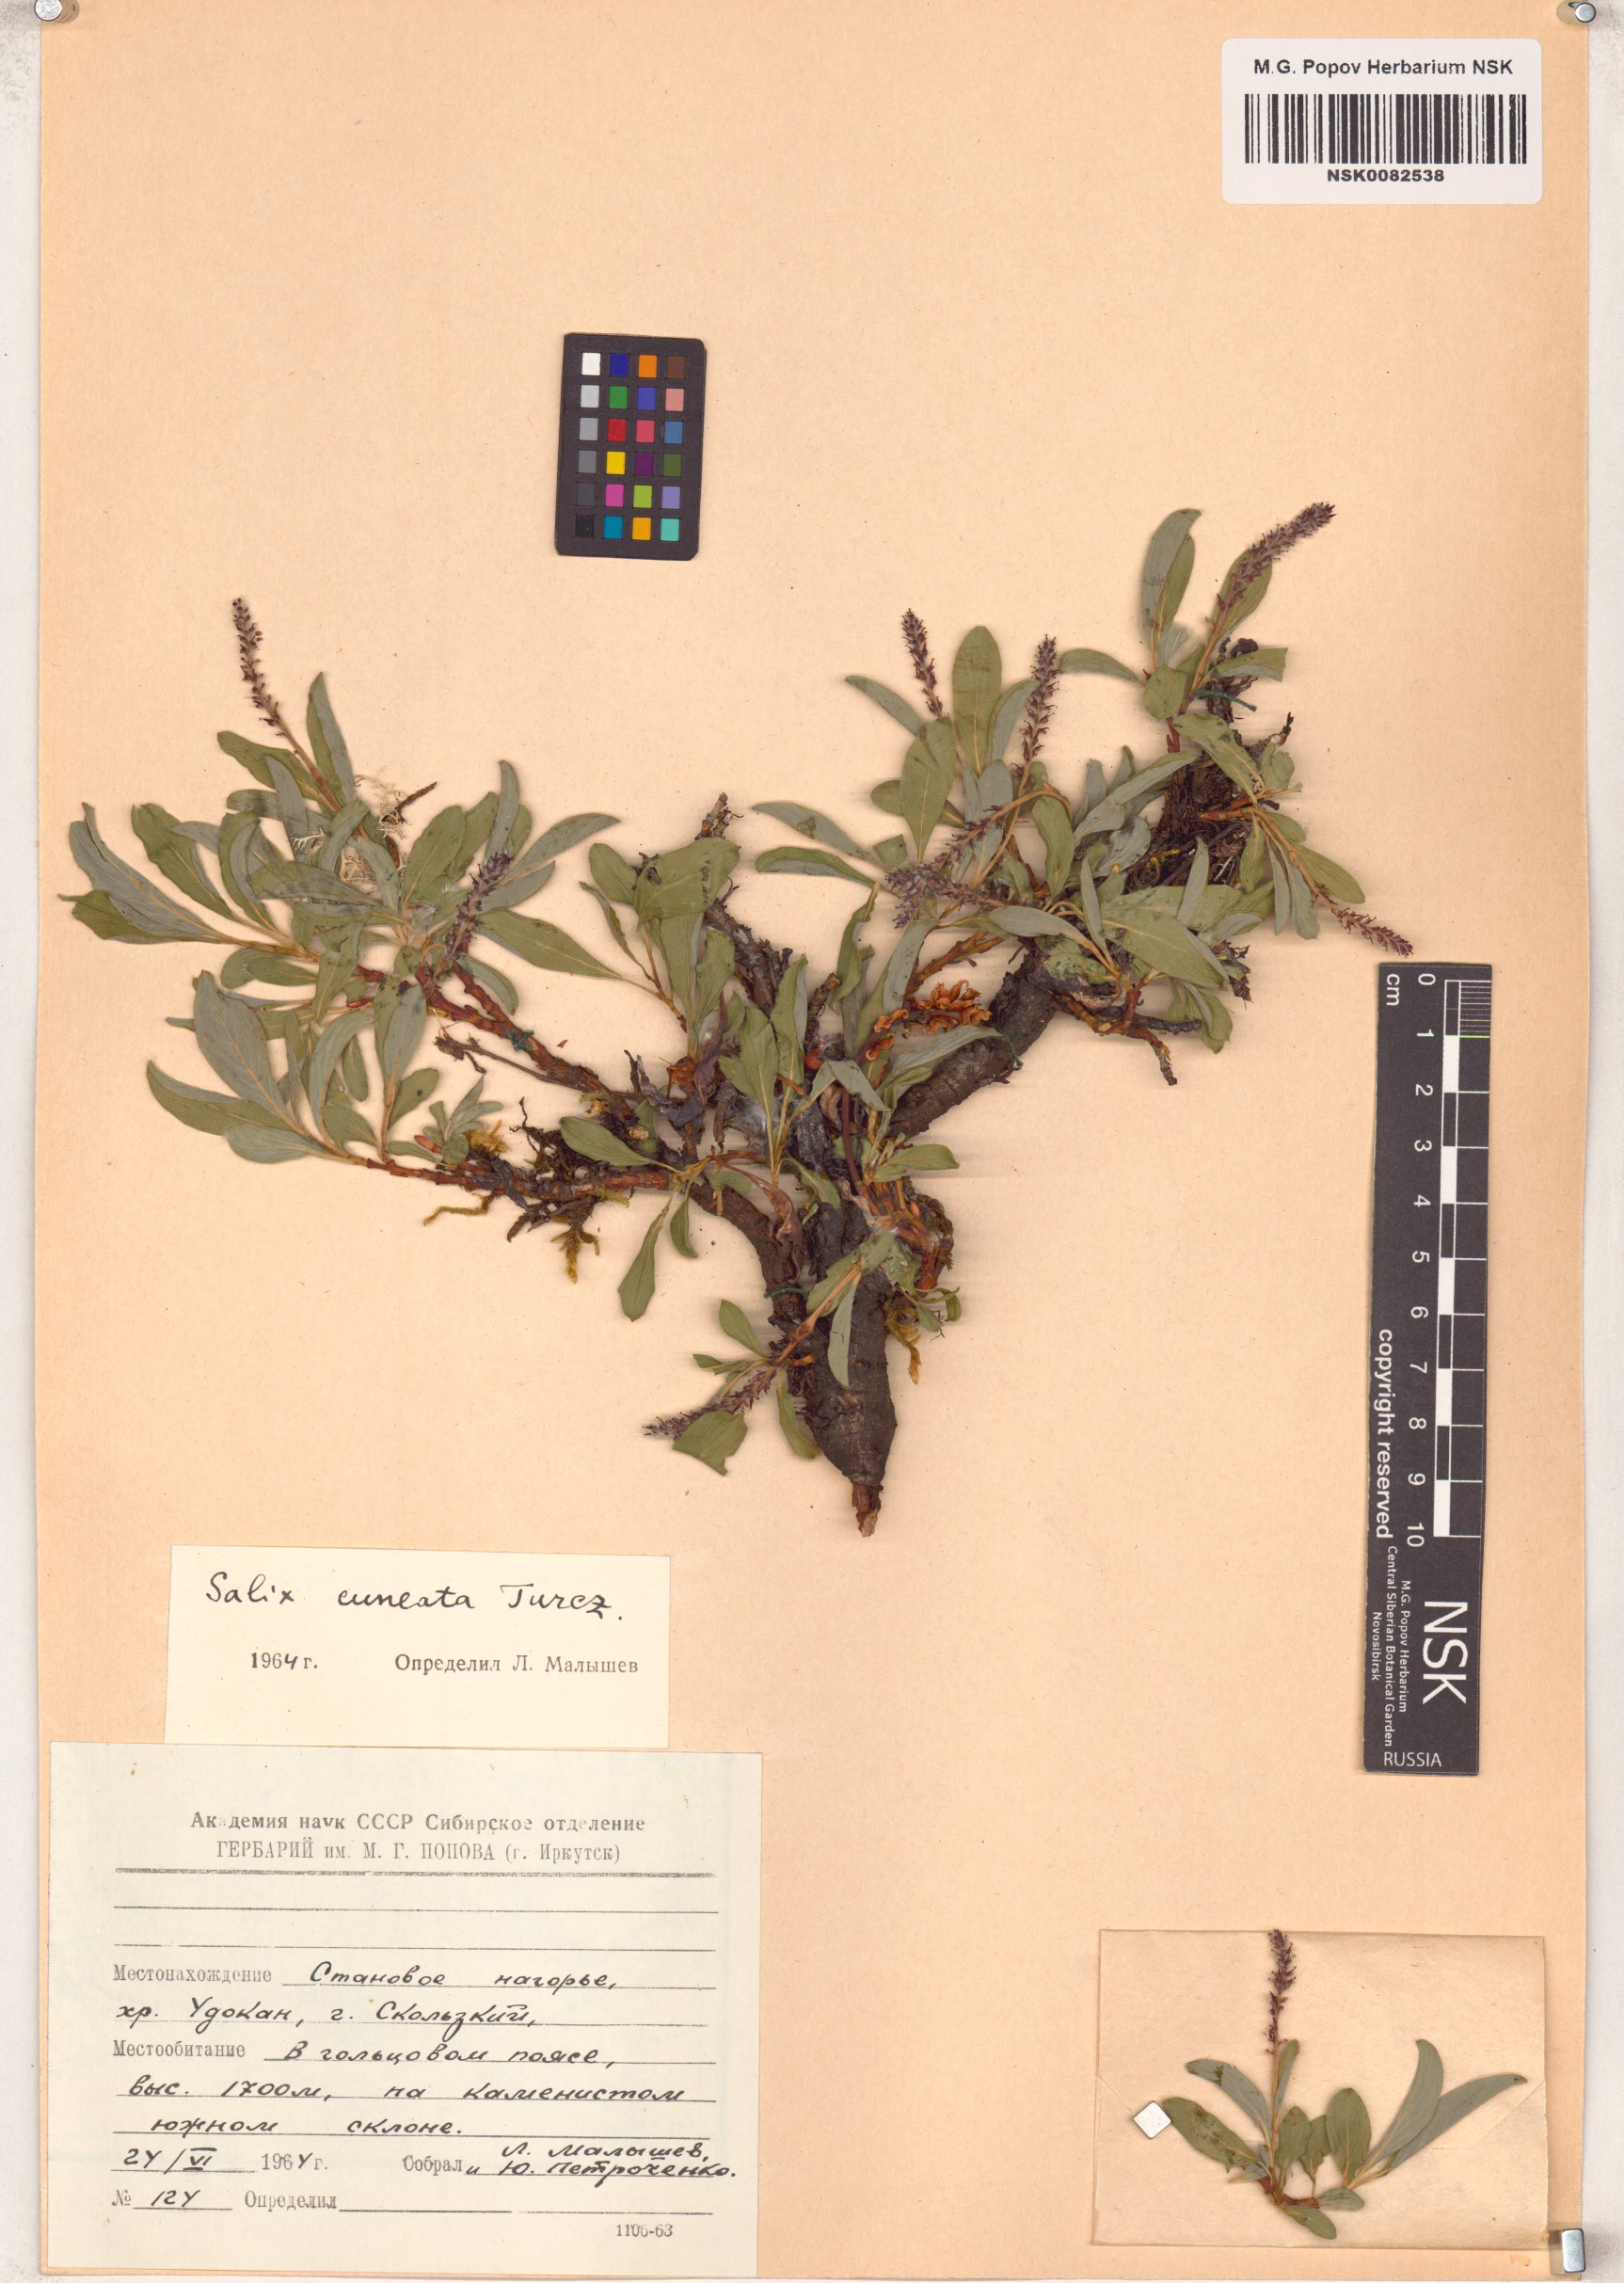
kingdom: Plantae
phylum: Tracheophyta
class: Magnoliopsida
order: Malpighiales
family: Salicaceae
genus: Salix
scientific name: Salix sphenophylla
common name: Wedge-leaved willow
